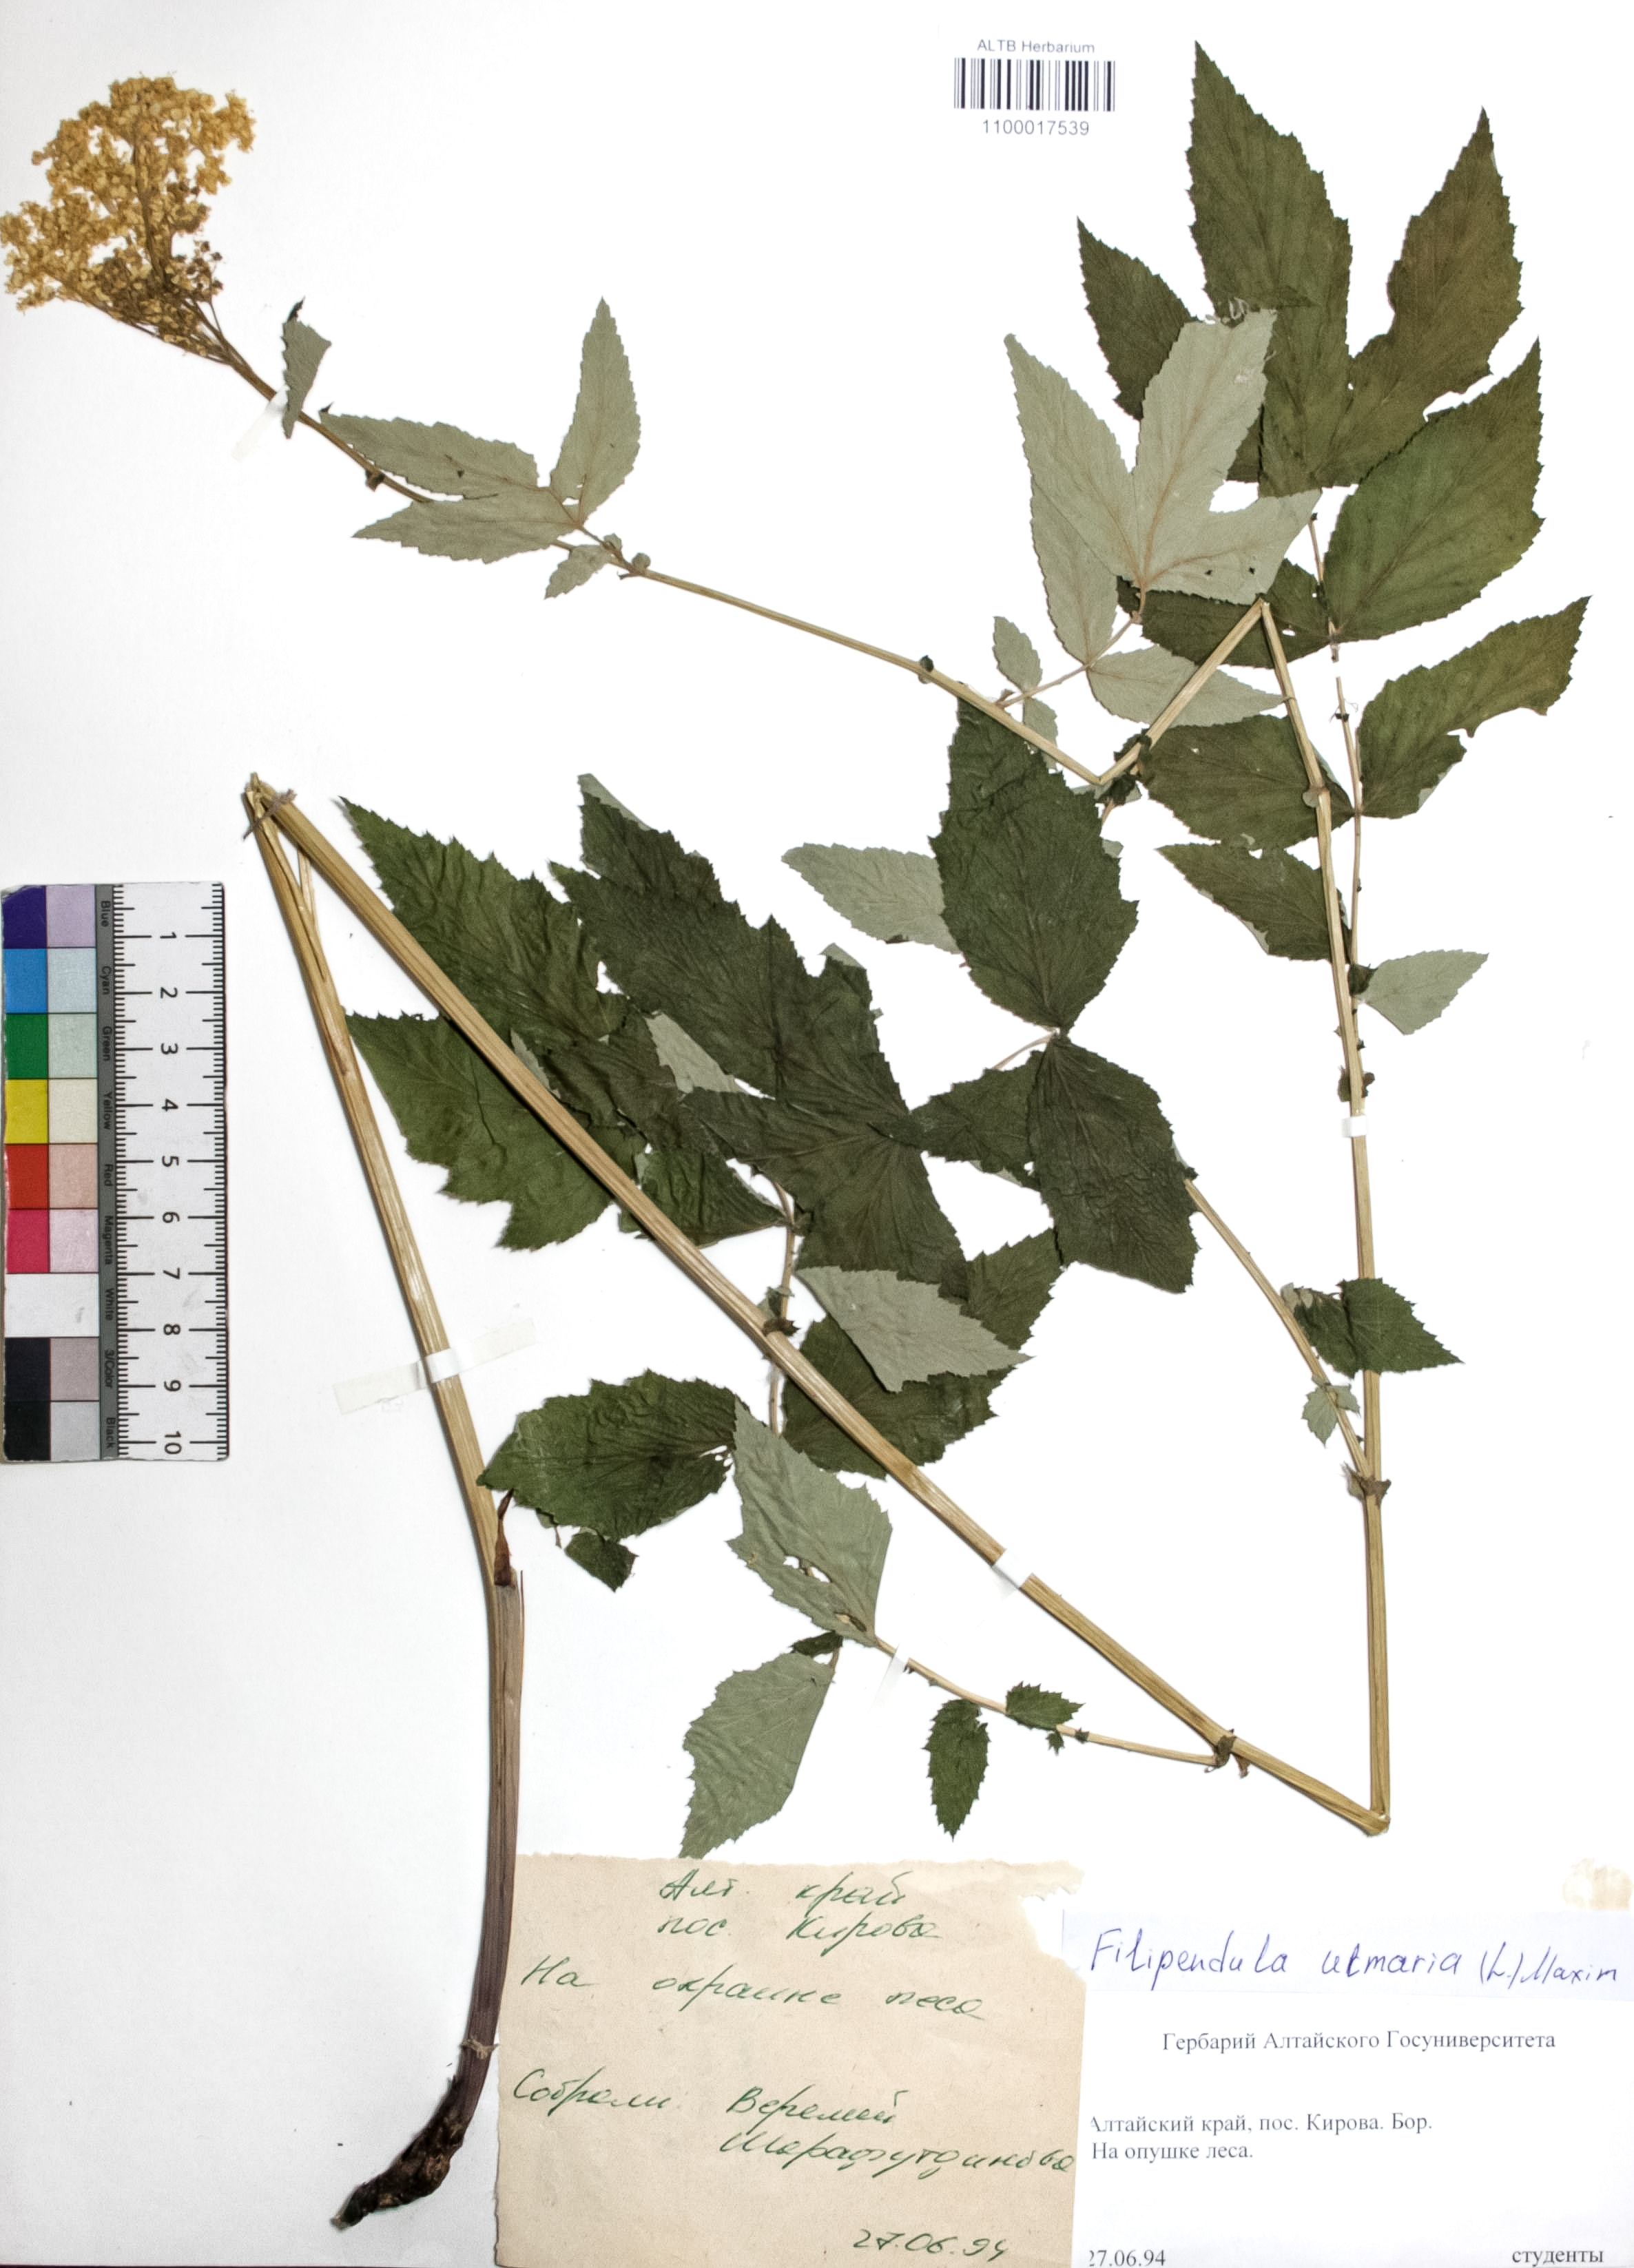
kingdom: Plantae
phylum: Tracheophyta
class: Magnoliopsida
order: Rosales
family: Rosaceae
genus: Filipendula
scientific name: Filipendula ulmaria
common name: Meadowsweet
